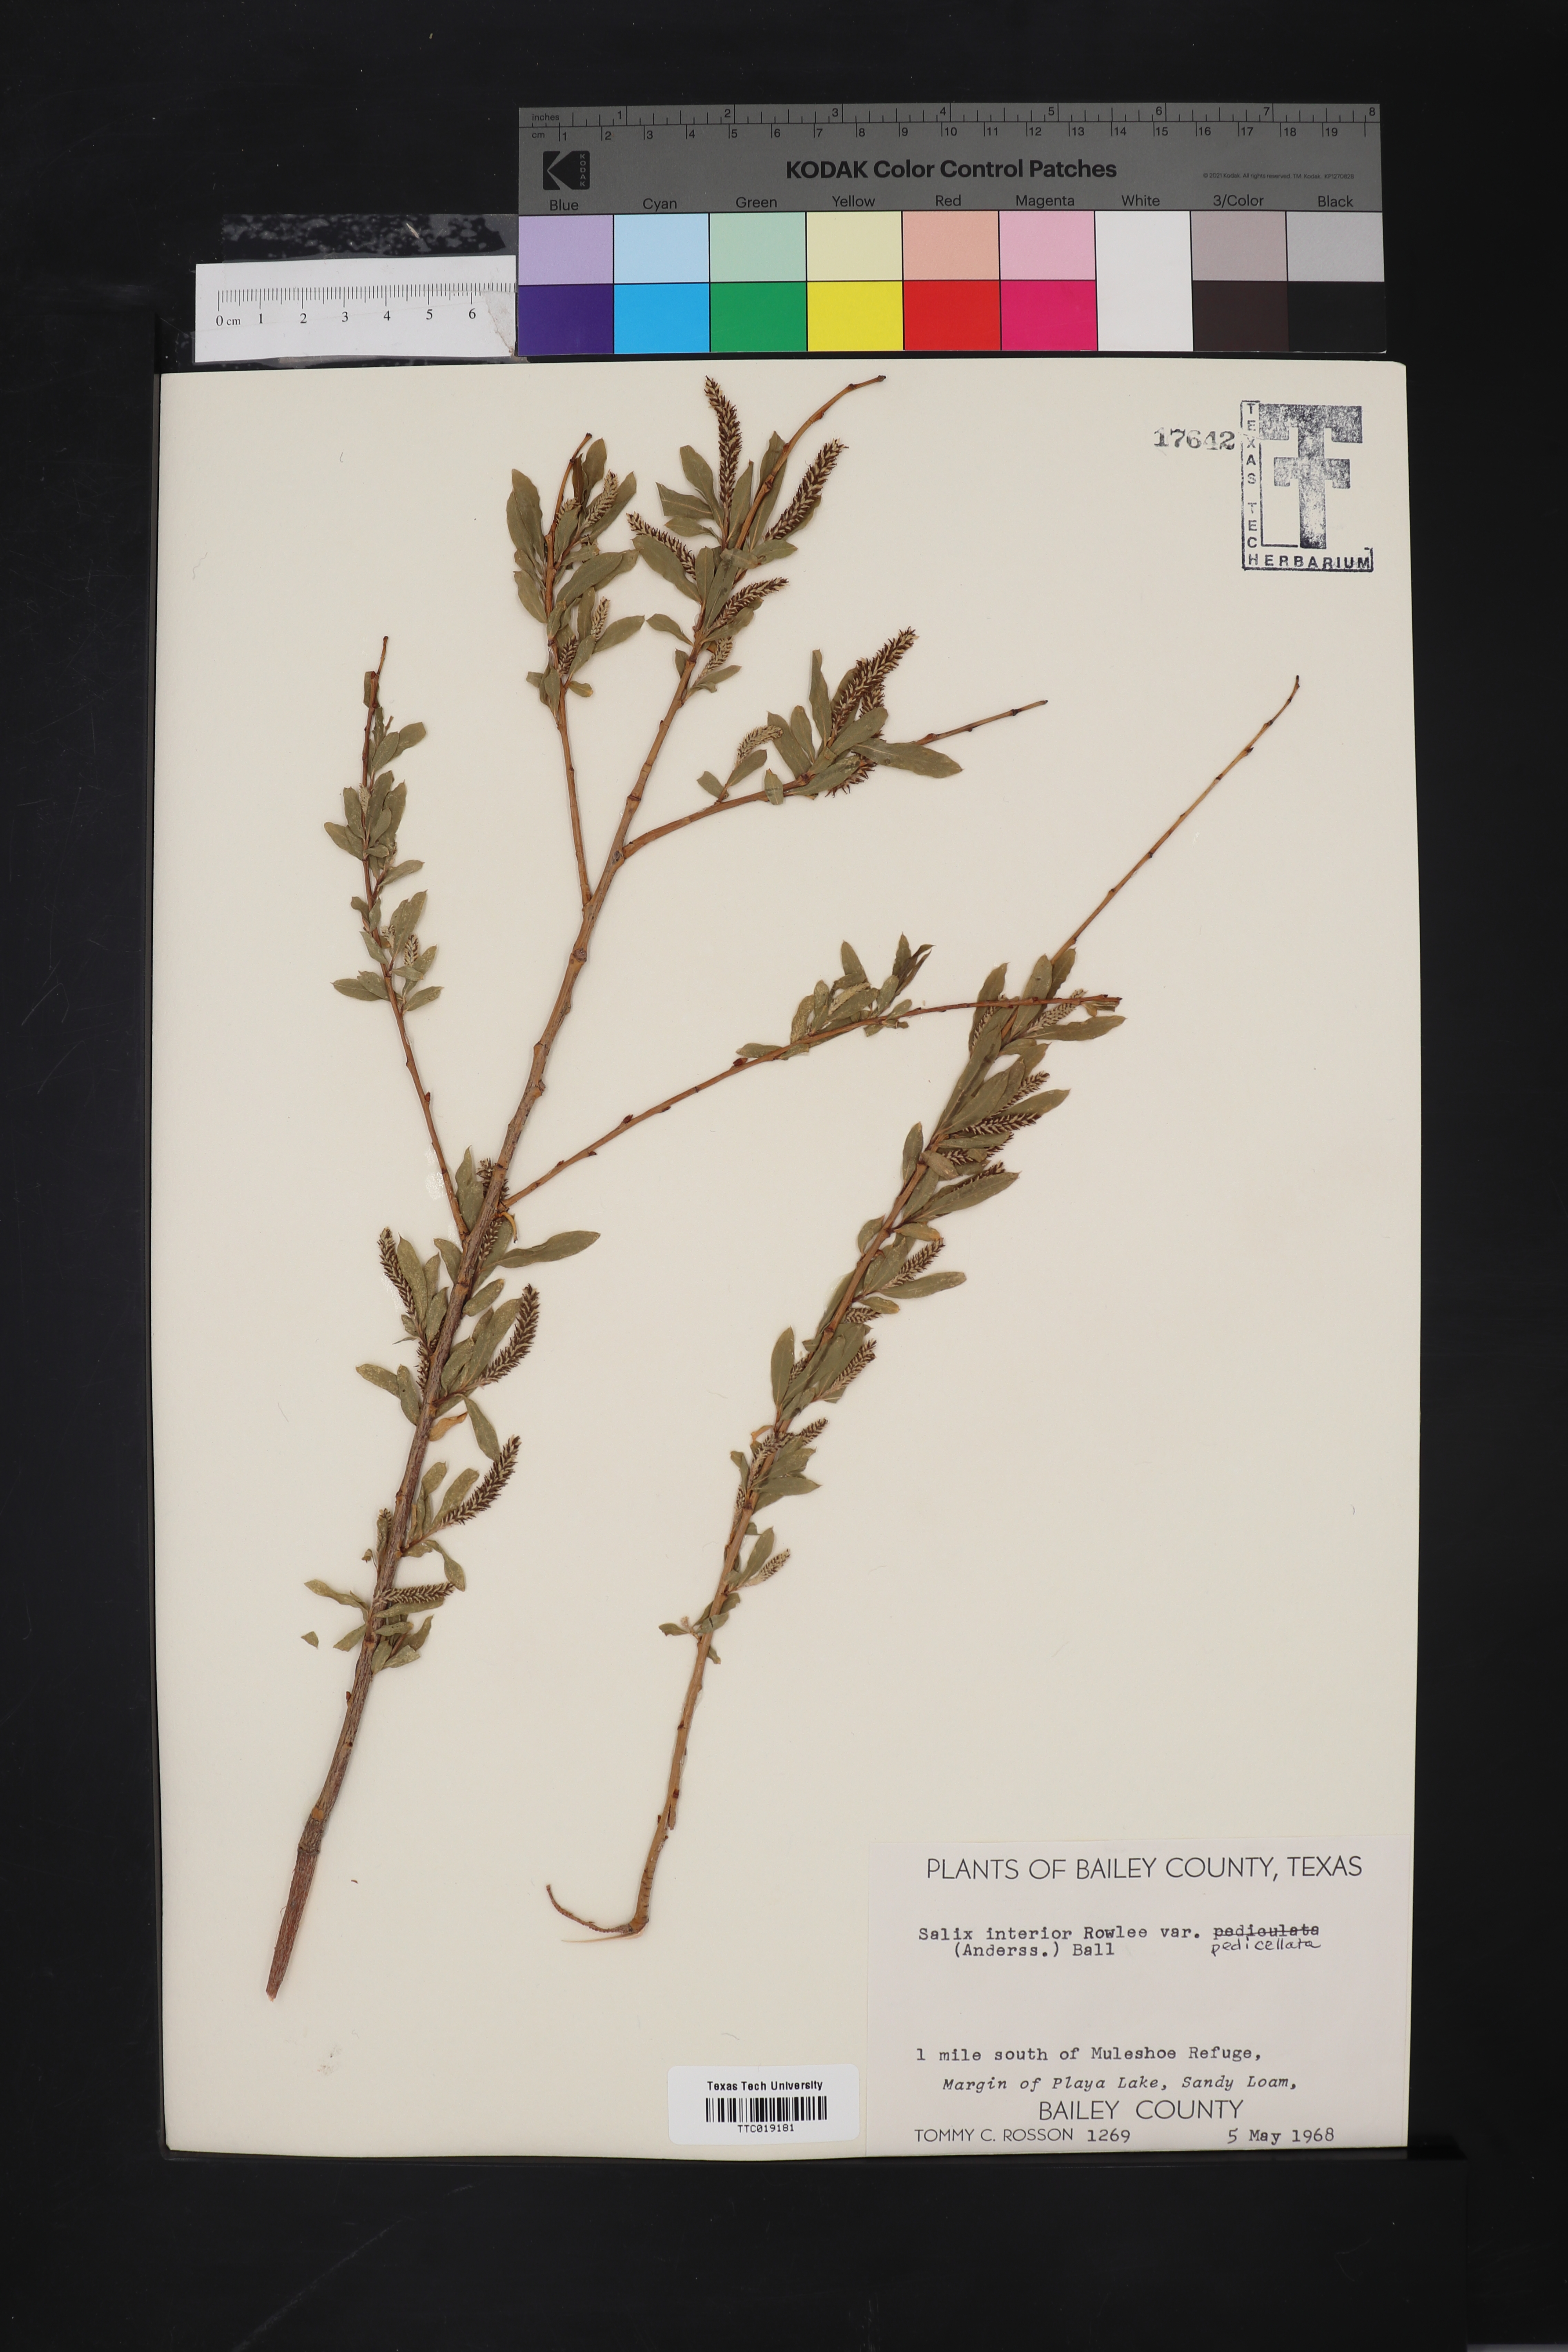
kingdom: Plantae
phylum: Tracheophyta
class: Magnoliopsida
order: Malpighiales
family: Salicaceae
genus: Salix
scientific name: Salix interior
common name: Sandbar willow
